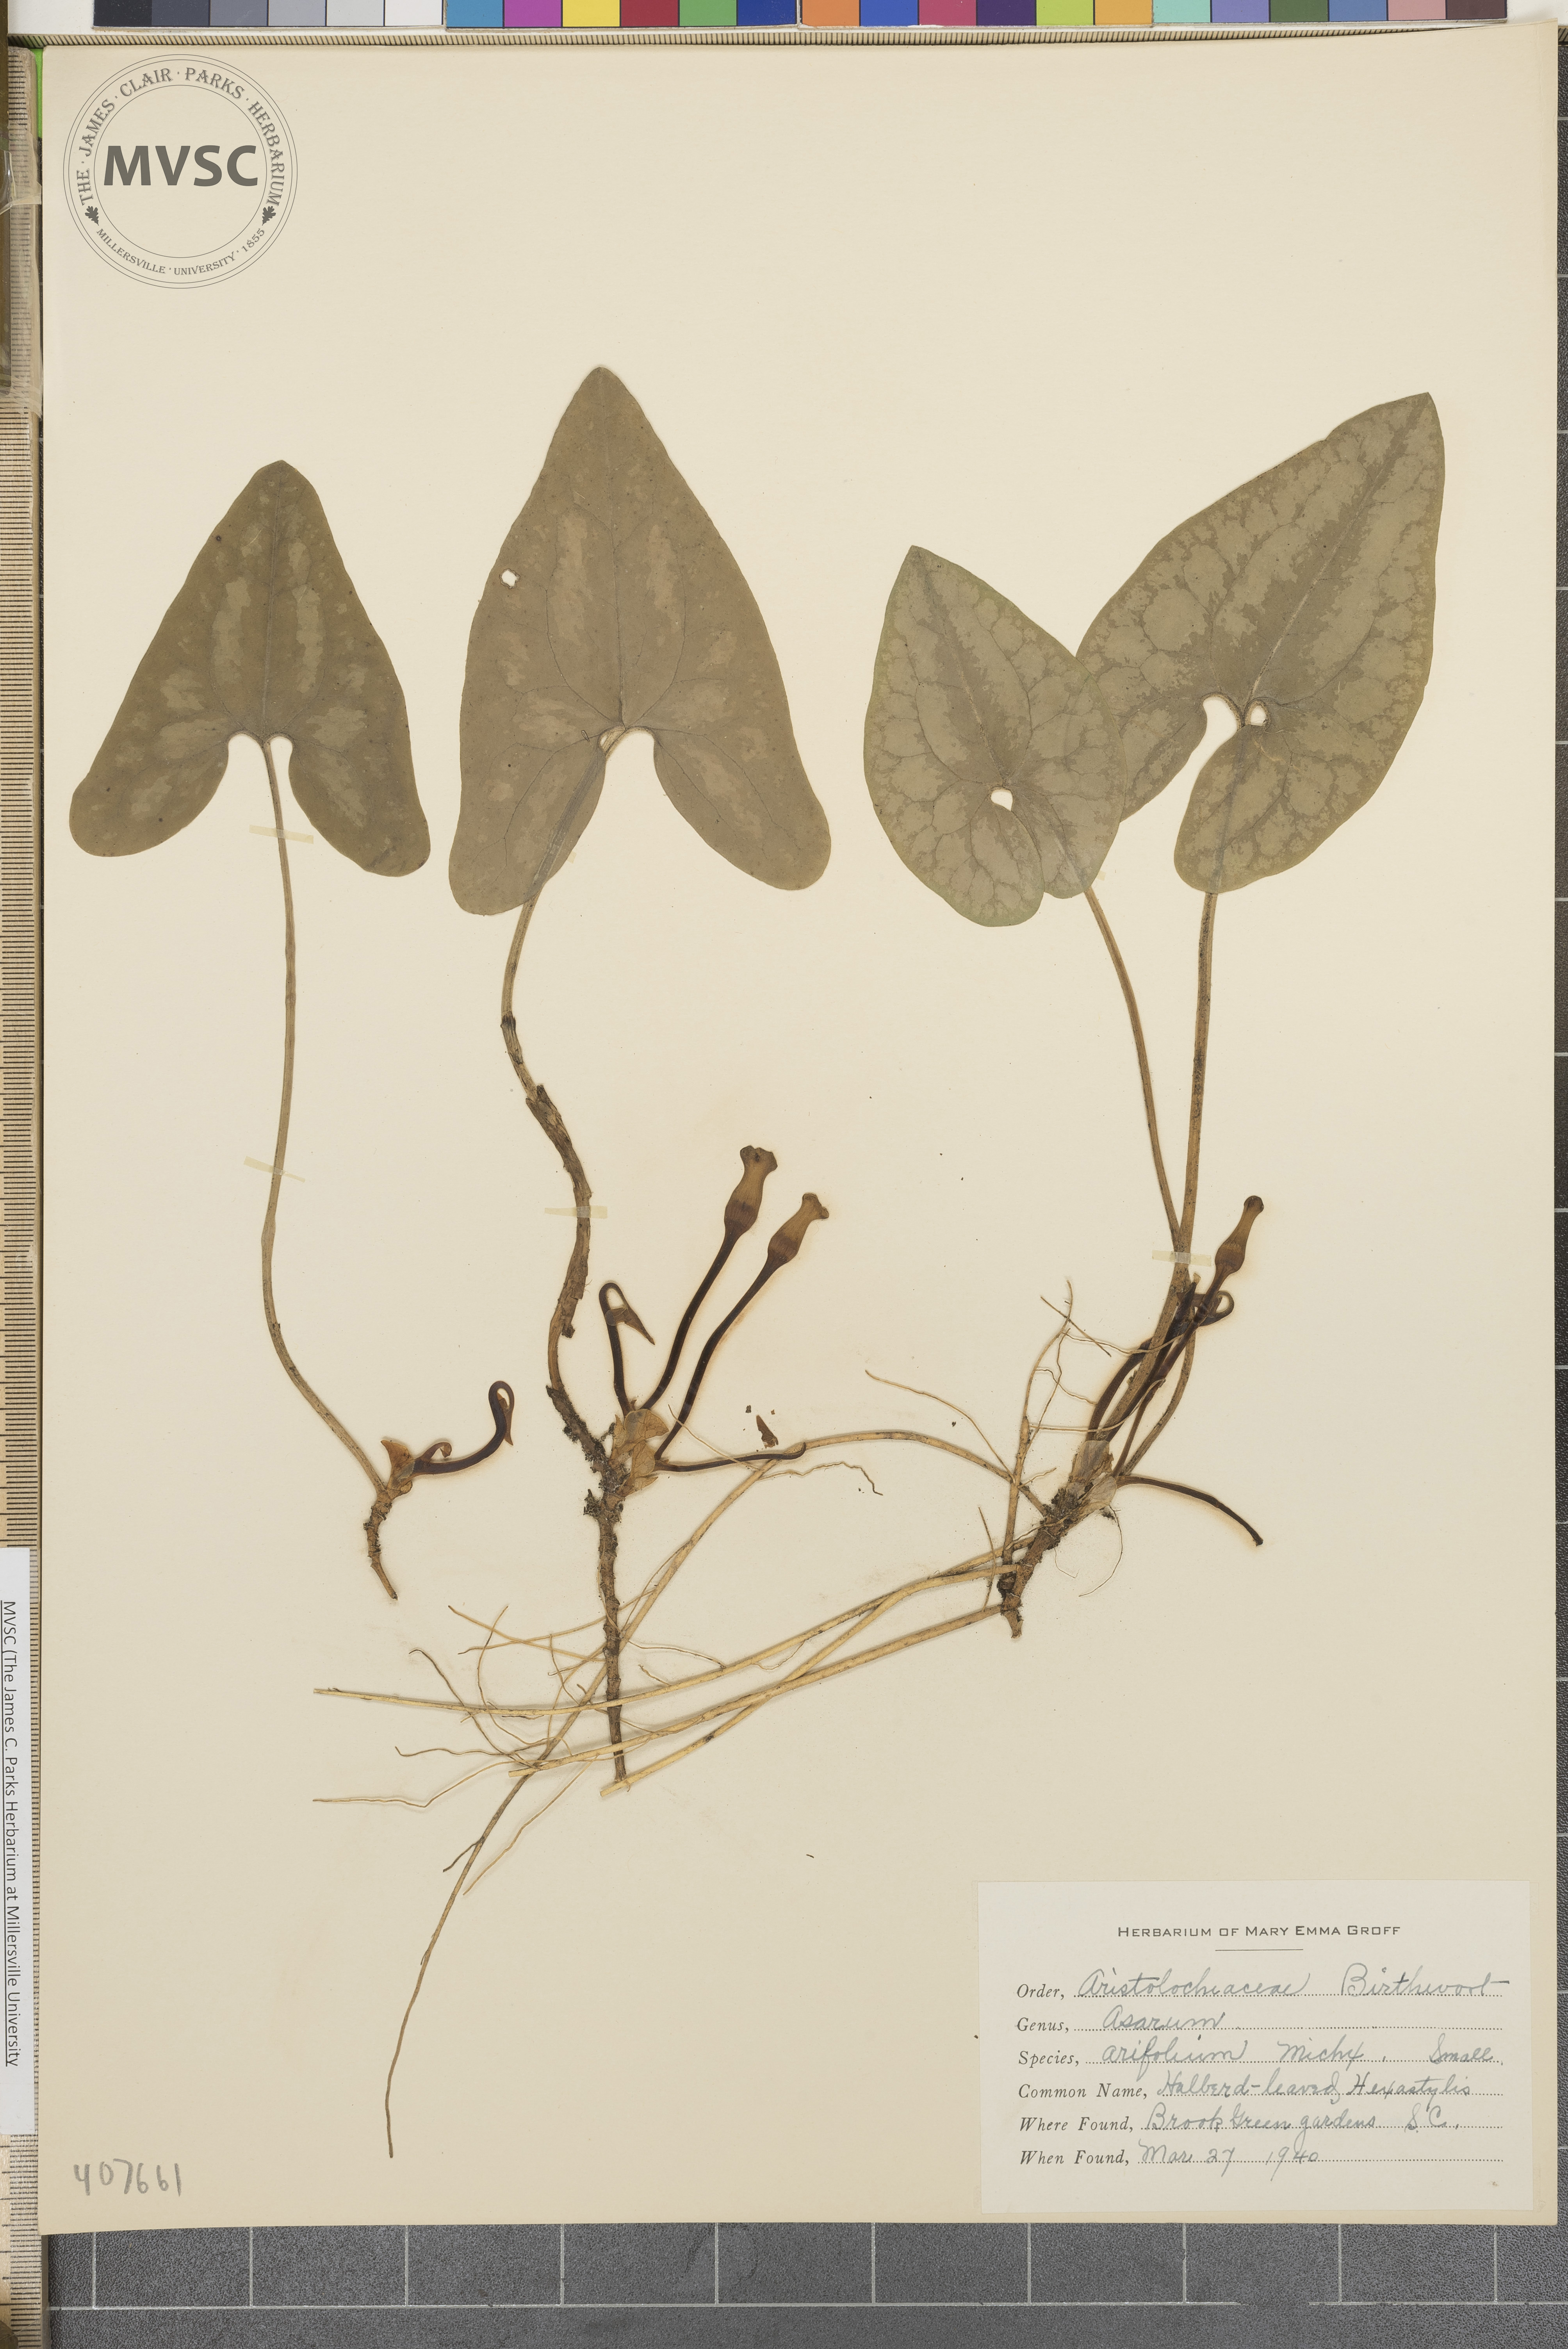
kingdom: Plantae
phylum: Tracheophyta
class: Magnoliopsida
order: Piperales
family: Aristolochiaceae
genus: Hexastylis
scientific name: Hexastylis arifolia
